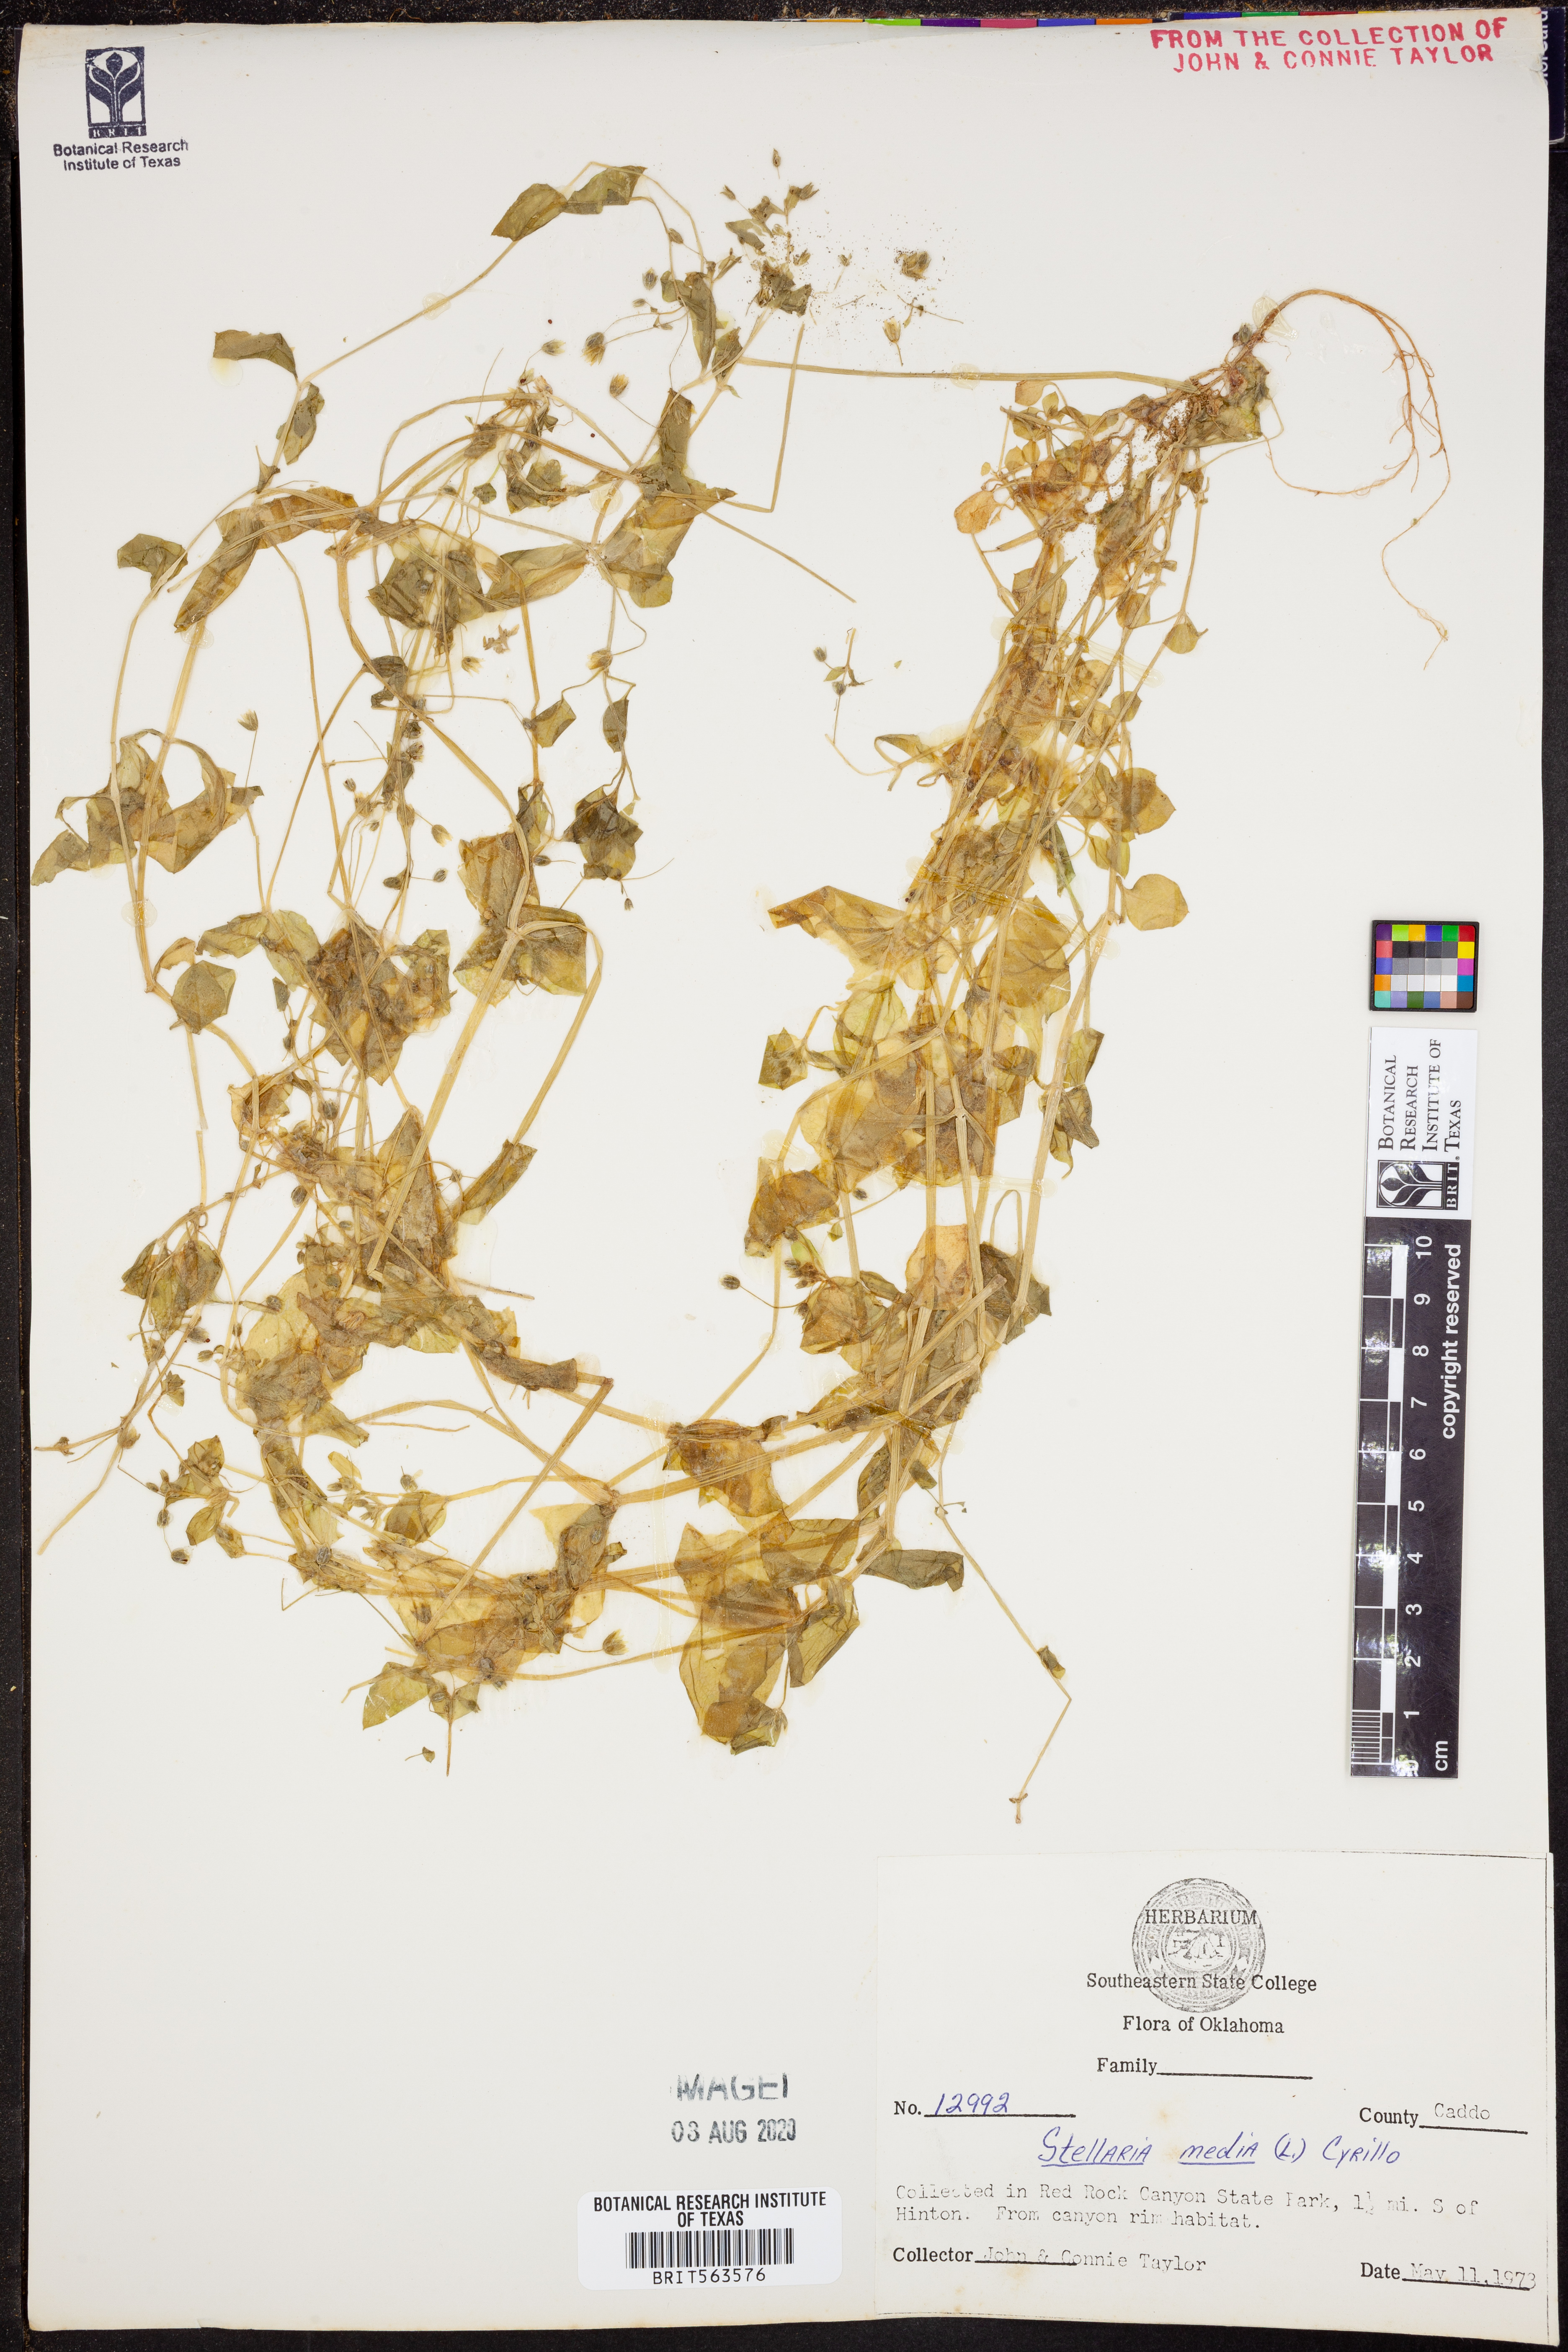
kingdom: Plantae
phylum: Tracheophyta
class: Magnoliopsida
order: Caryophyllales
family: Caryophyllaceae
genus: Stellaria
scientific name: Stellaria media
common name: Common chickweed
